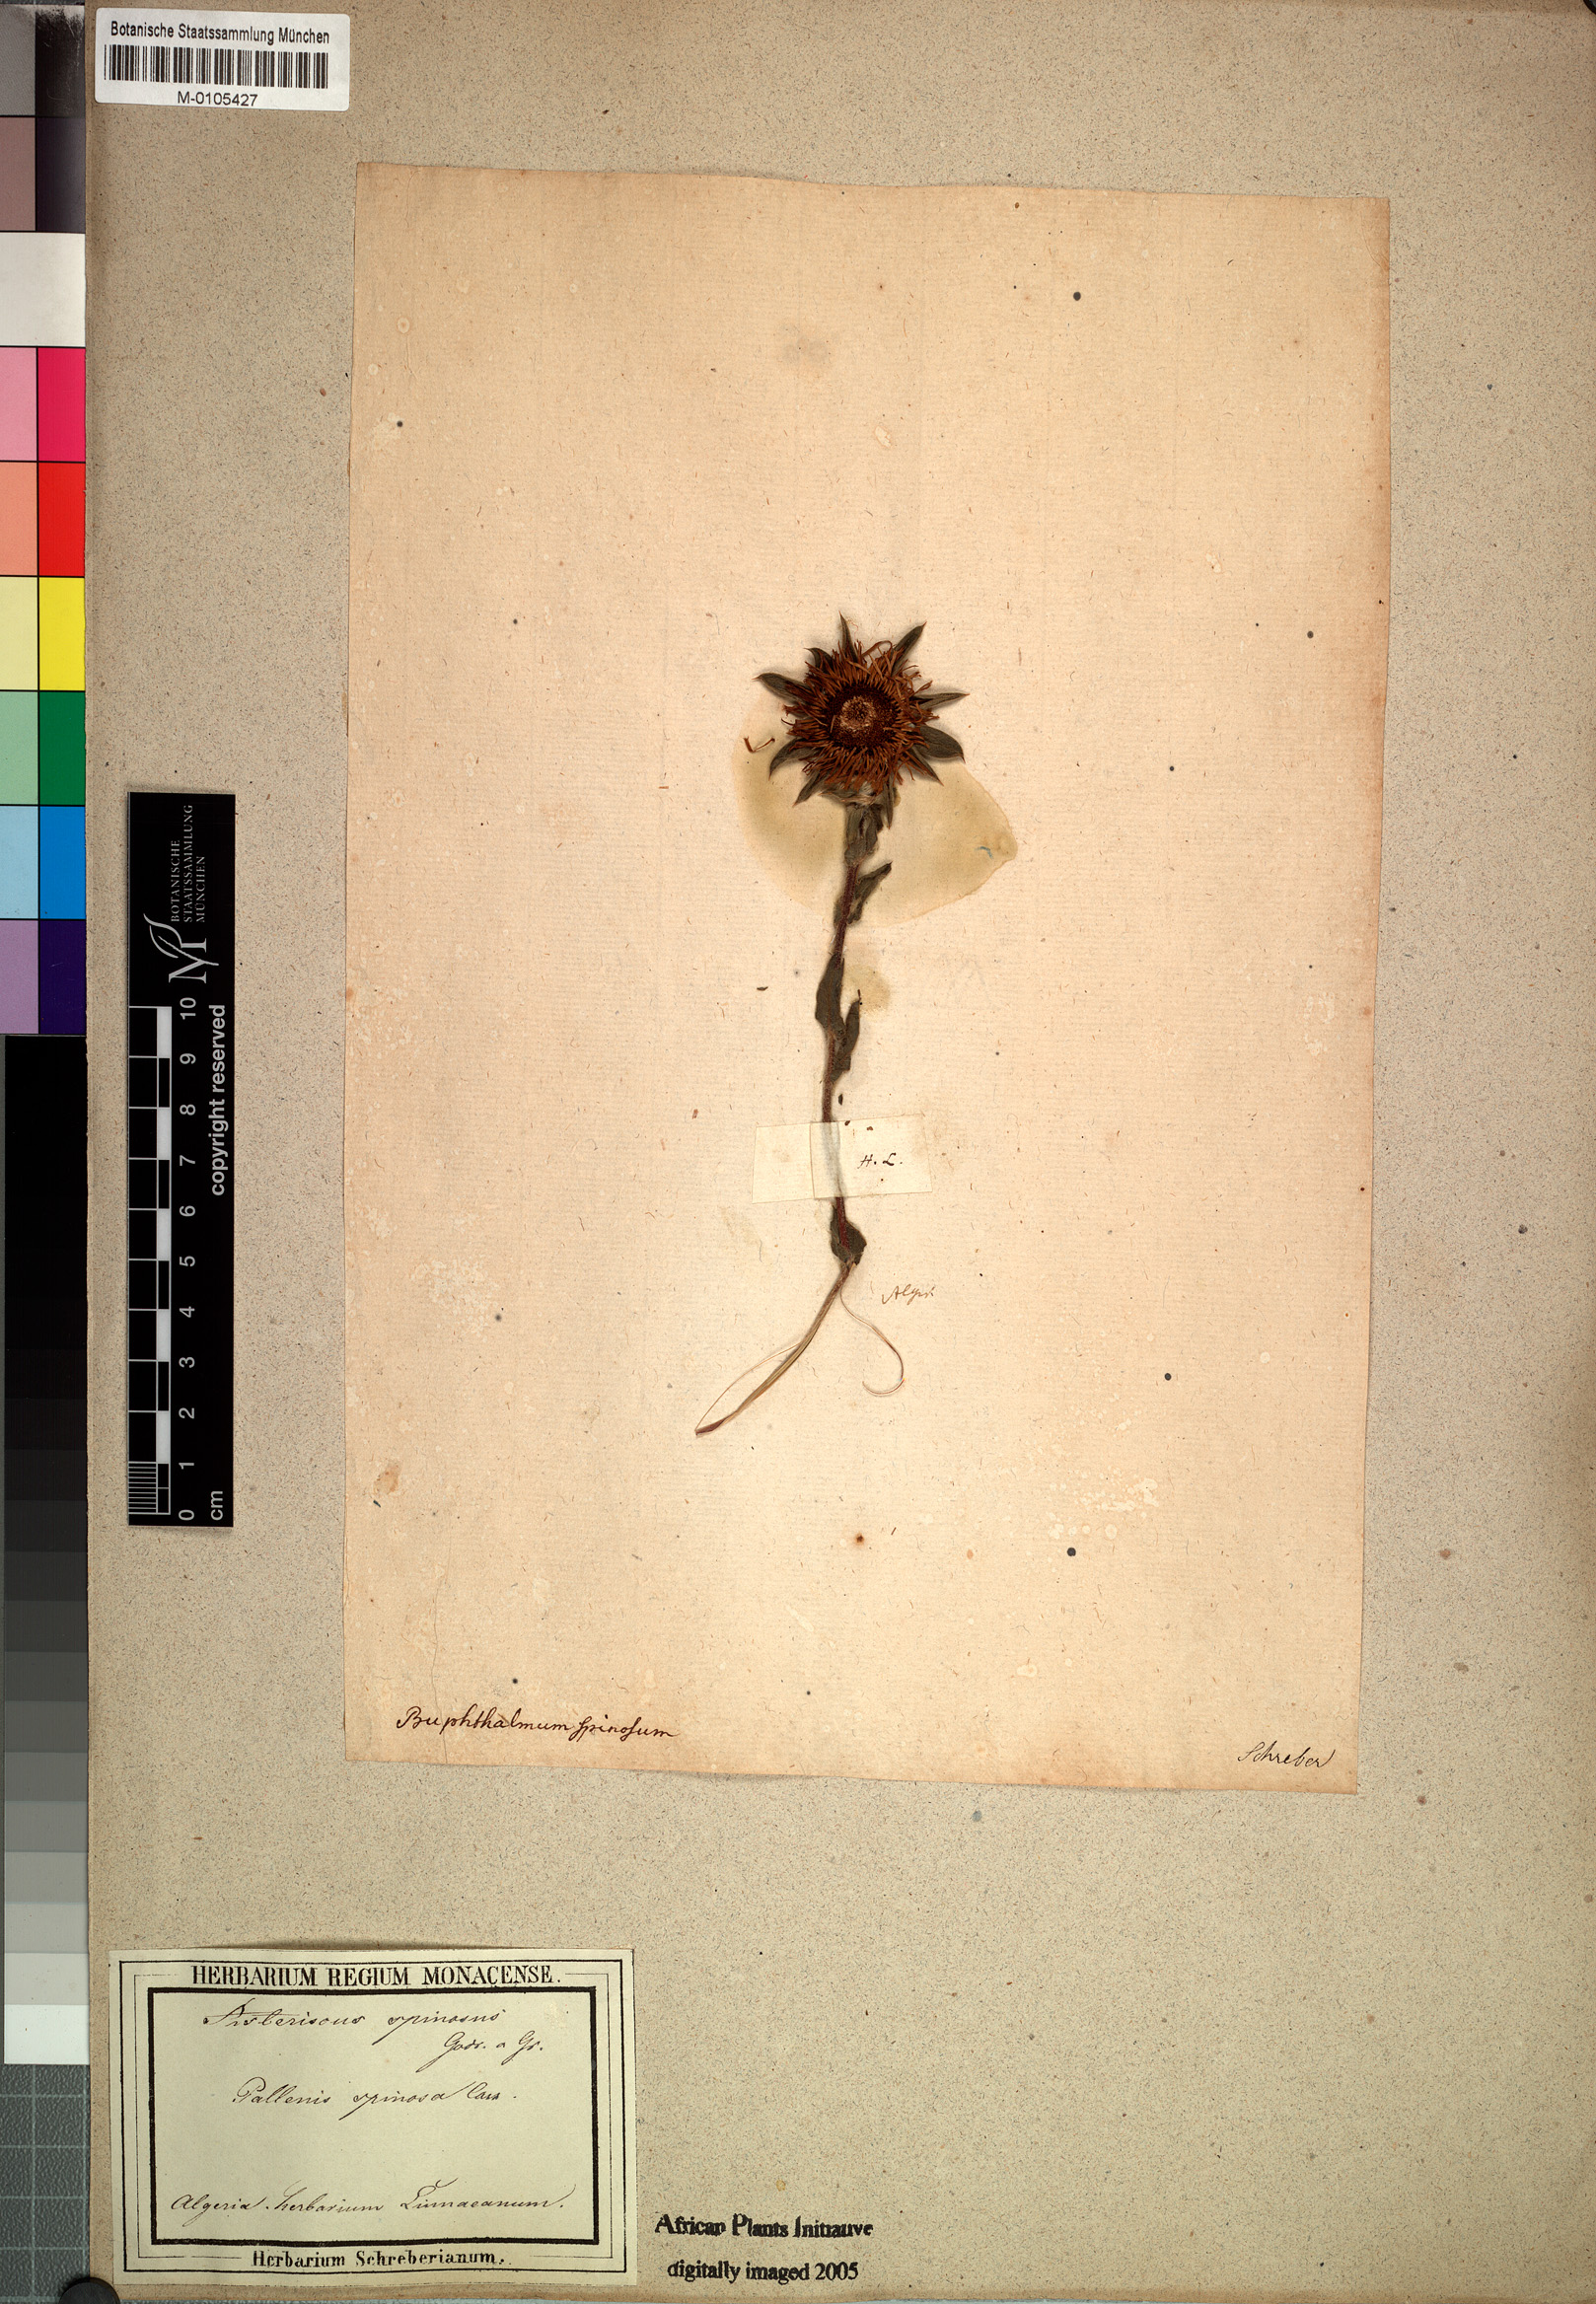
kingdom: Plantae
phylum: Tracheophyta
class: Magnoliopsida
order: Asterales
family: Asteraceae
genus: Pallenis
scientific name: Pallenis spinosa
